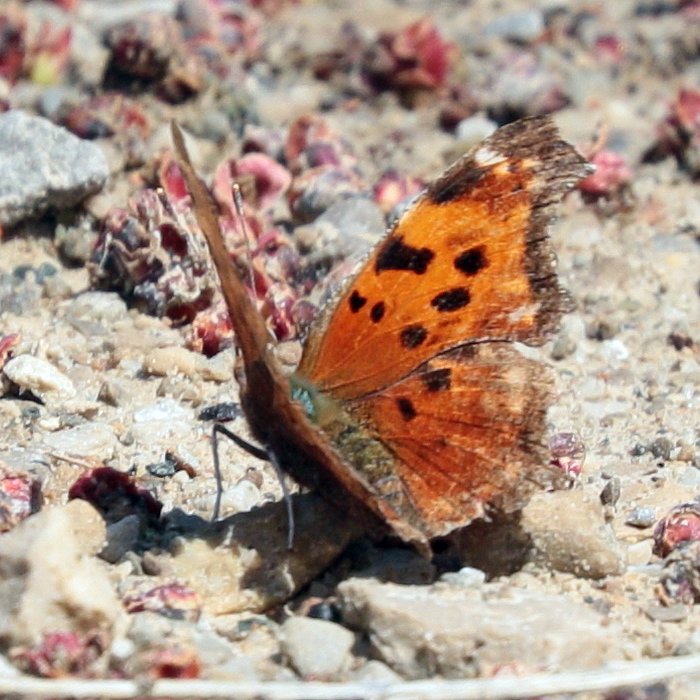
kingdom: Animalia
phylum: Arthropoda
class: Insecta
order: Lepidoptera
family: Nymphalidae
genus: Polygonia
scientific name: Polygonia comma
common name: Eastern Comma
